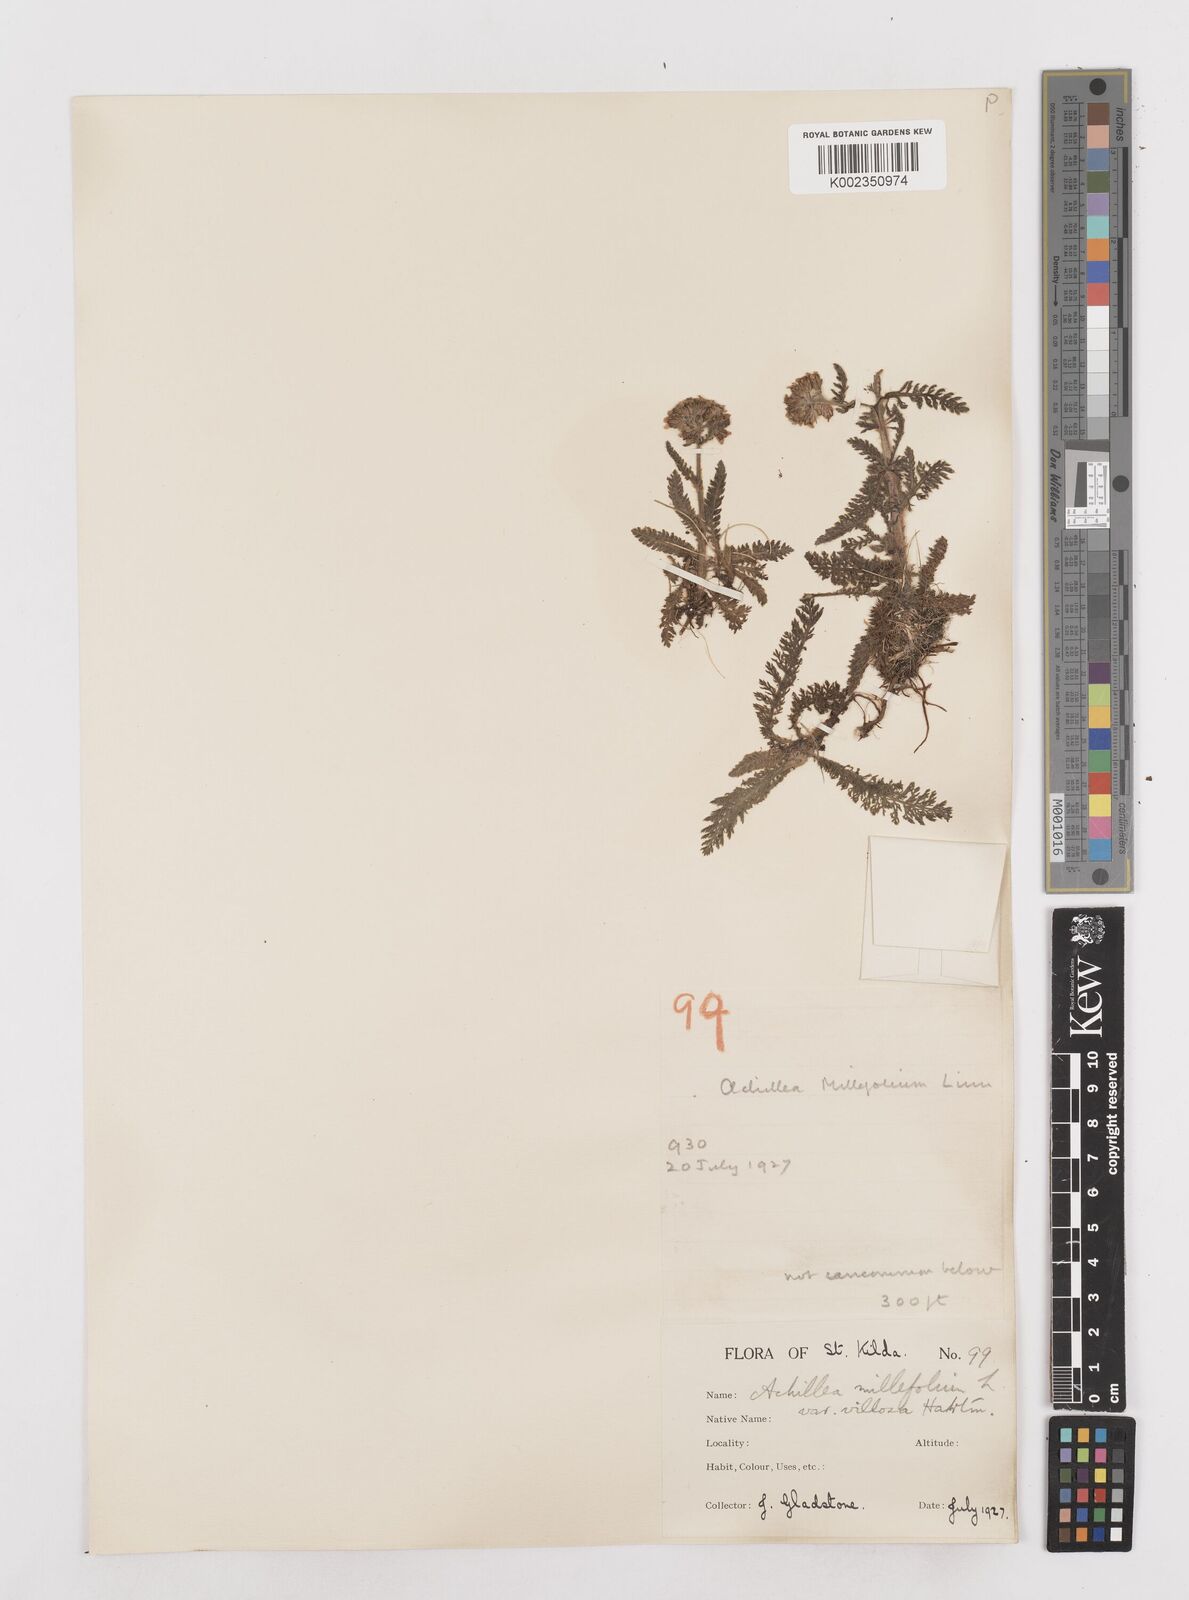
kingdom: Plantae
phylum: Tracheophyta
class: Magnoliopsida
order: Asterales
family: Asteraceae
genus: Achillea
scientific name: Achillea millefolium
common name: Yarrow
